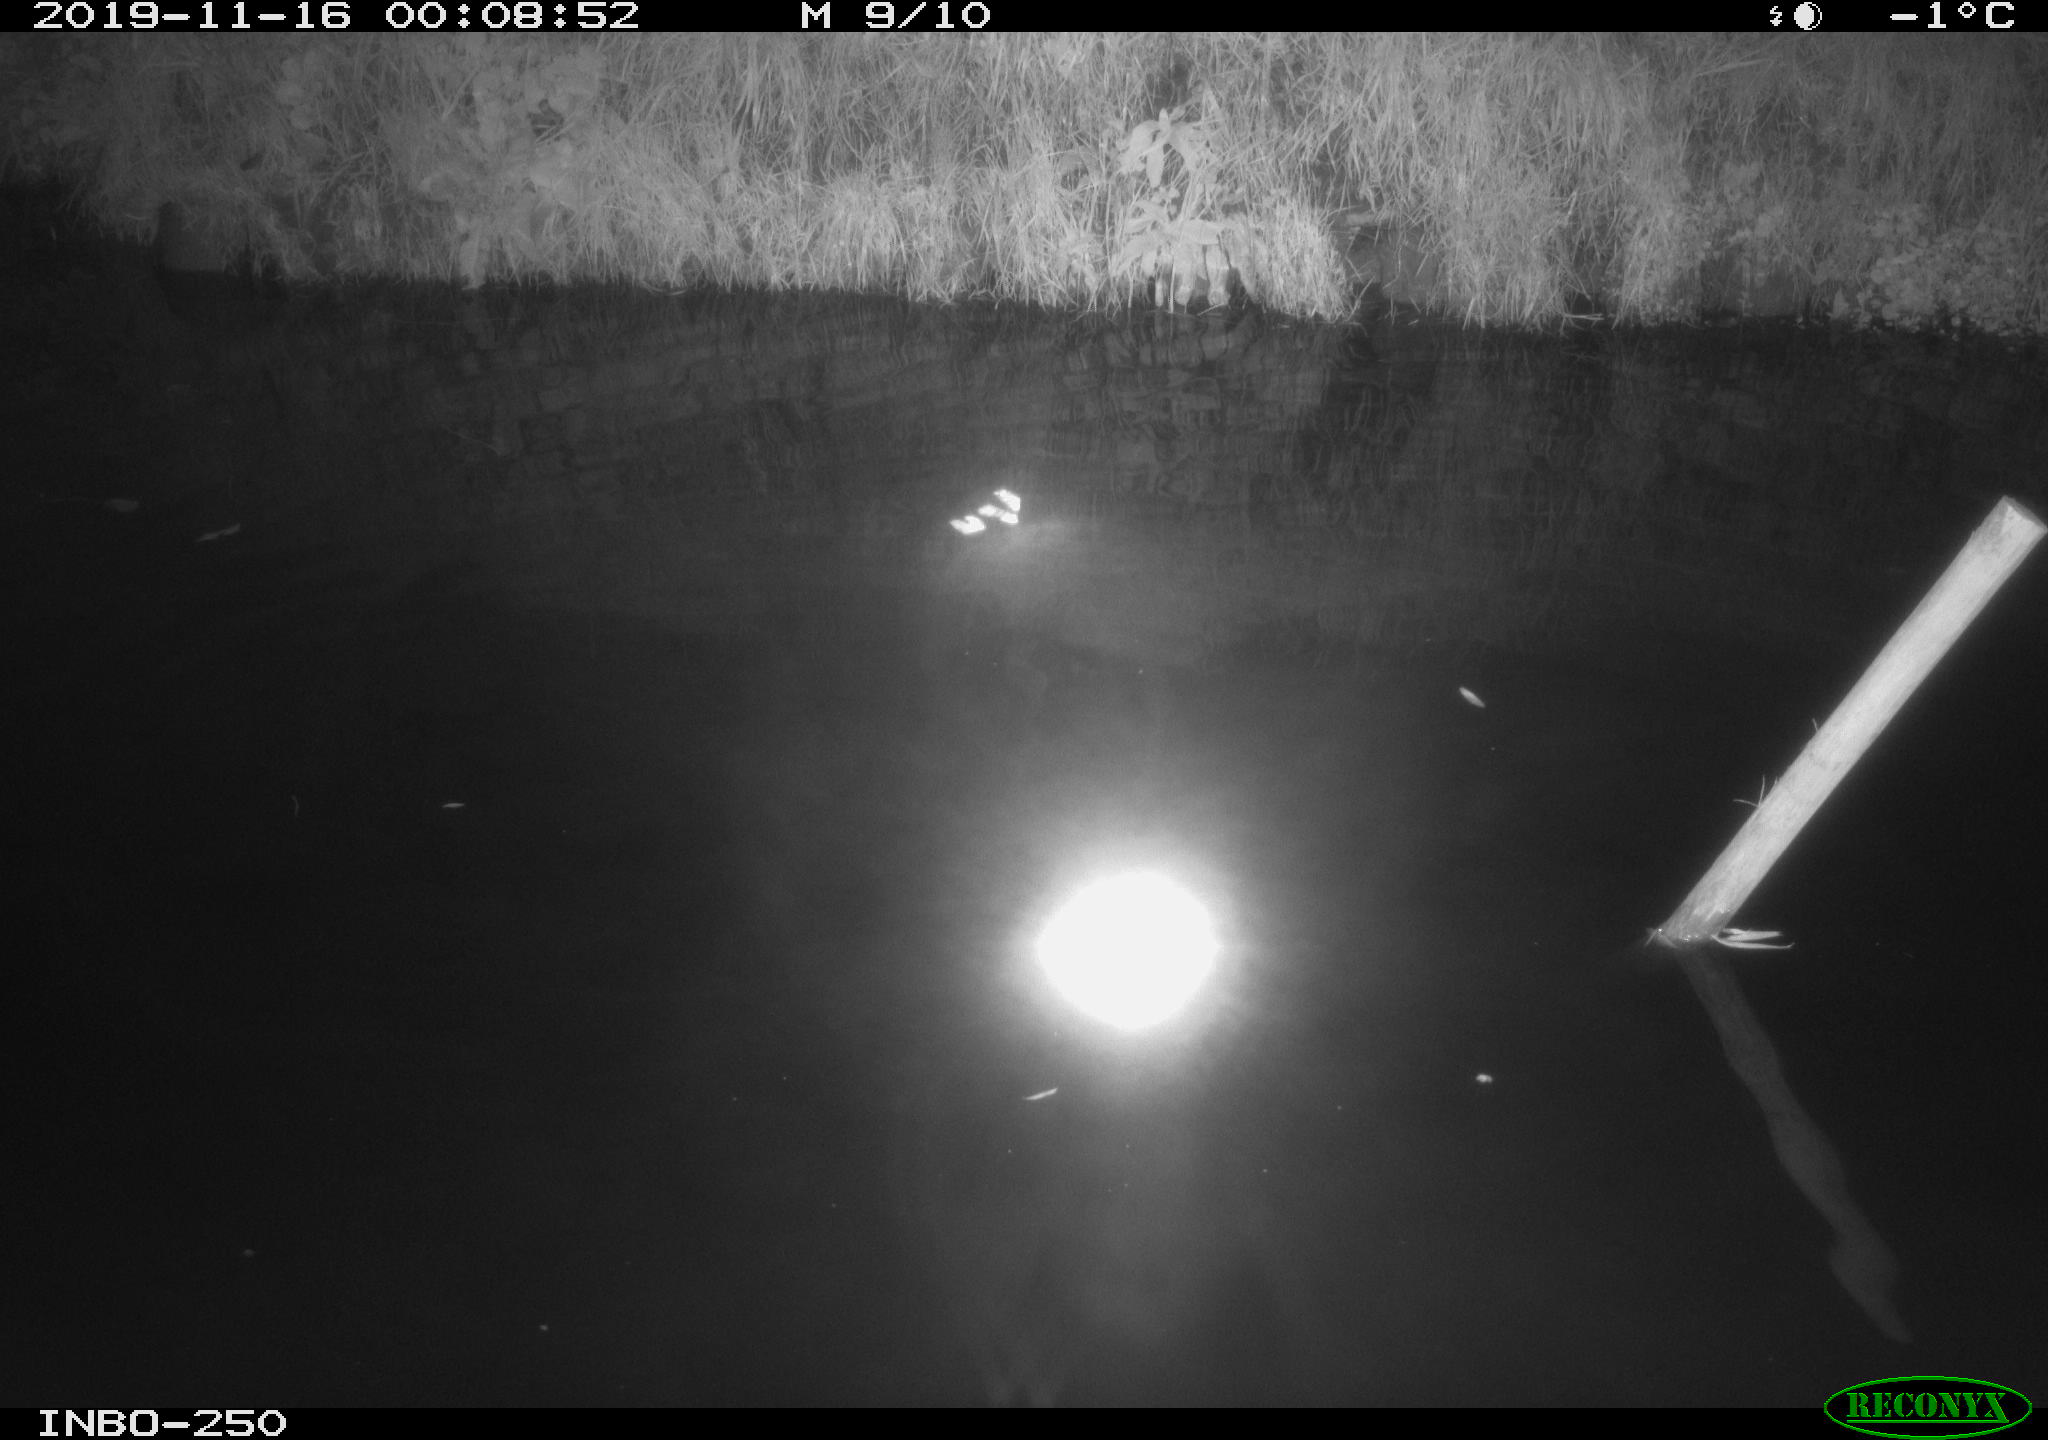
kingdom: Animalia
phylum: Chordata
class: Aves
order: Anseriformes
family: Anatidae
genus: Anas
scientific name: Anas platyrhynchos
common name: Mallard
